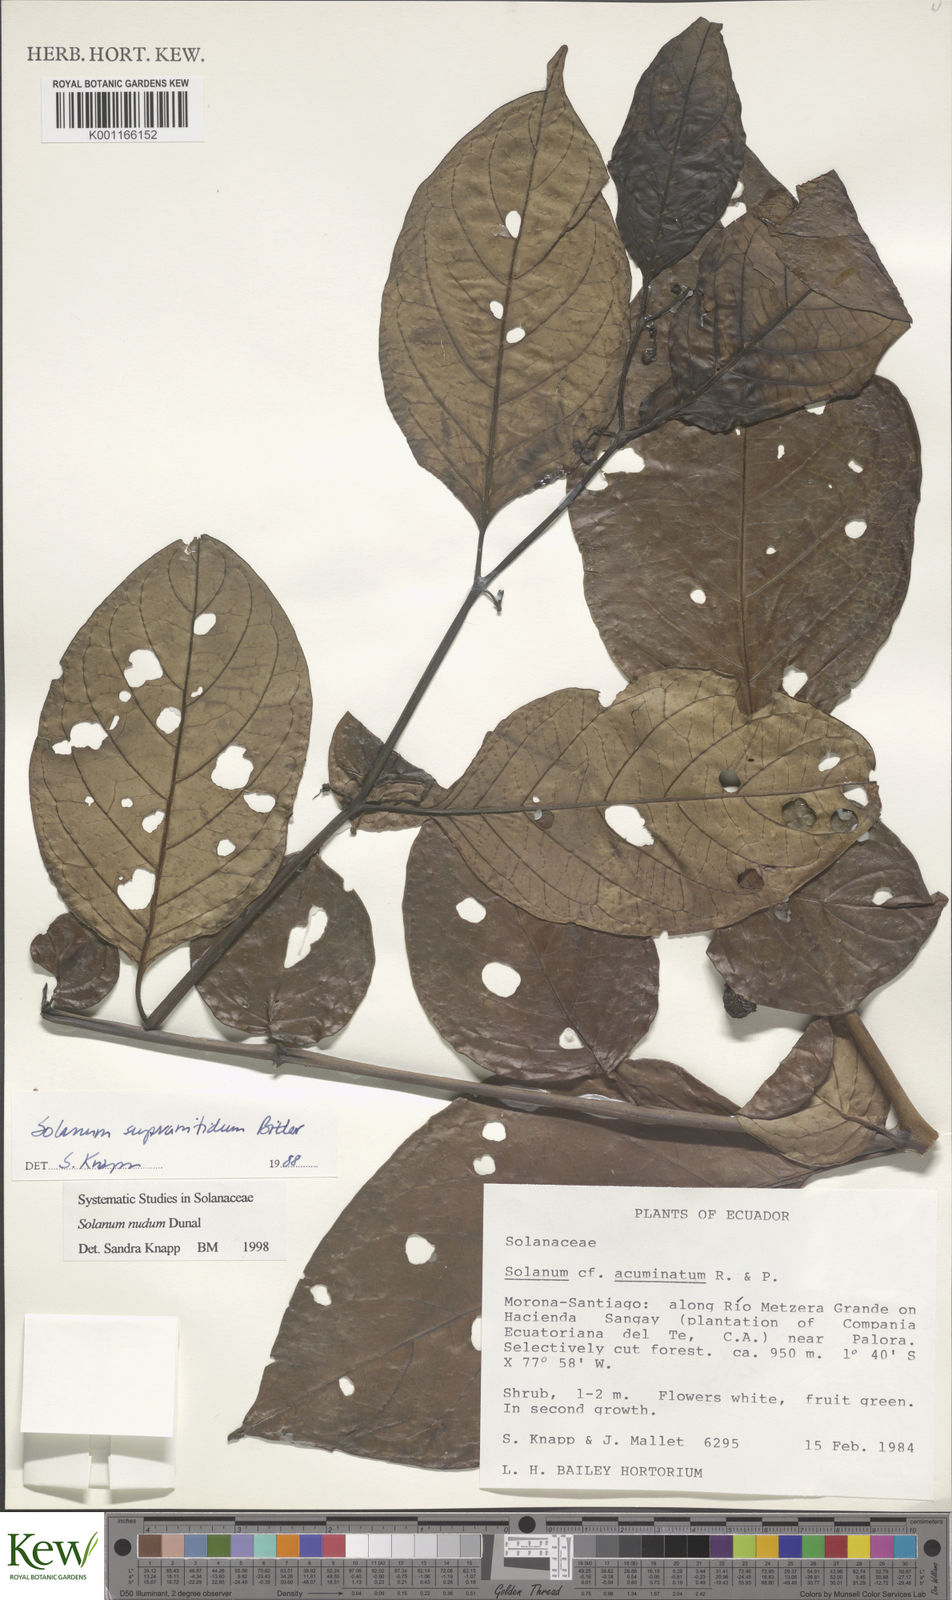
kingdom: Plantae
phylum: Tracheophyta
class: Magnoliopsida
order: Solanales
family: Solanaceae
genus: Solanum
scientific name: Solanum nudum
